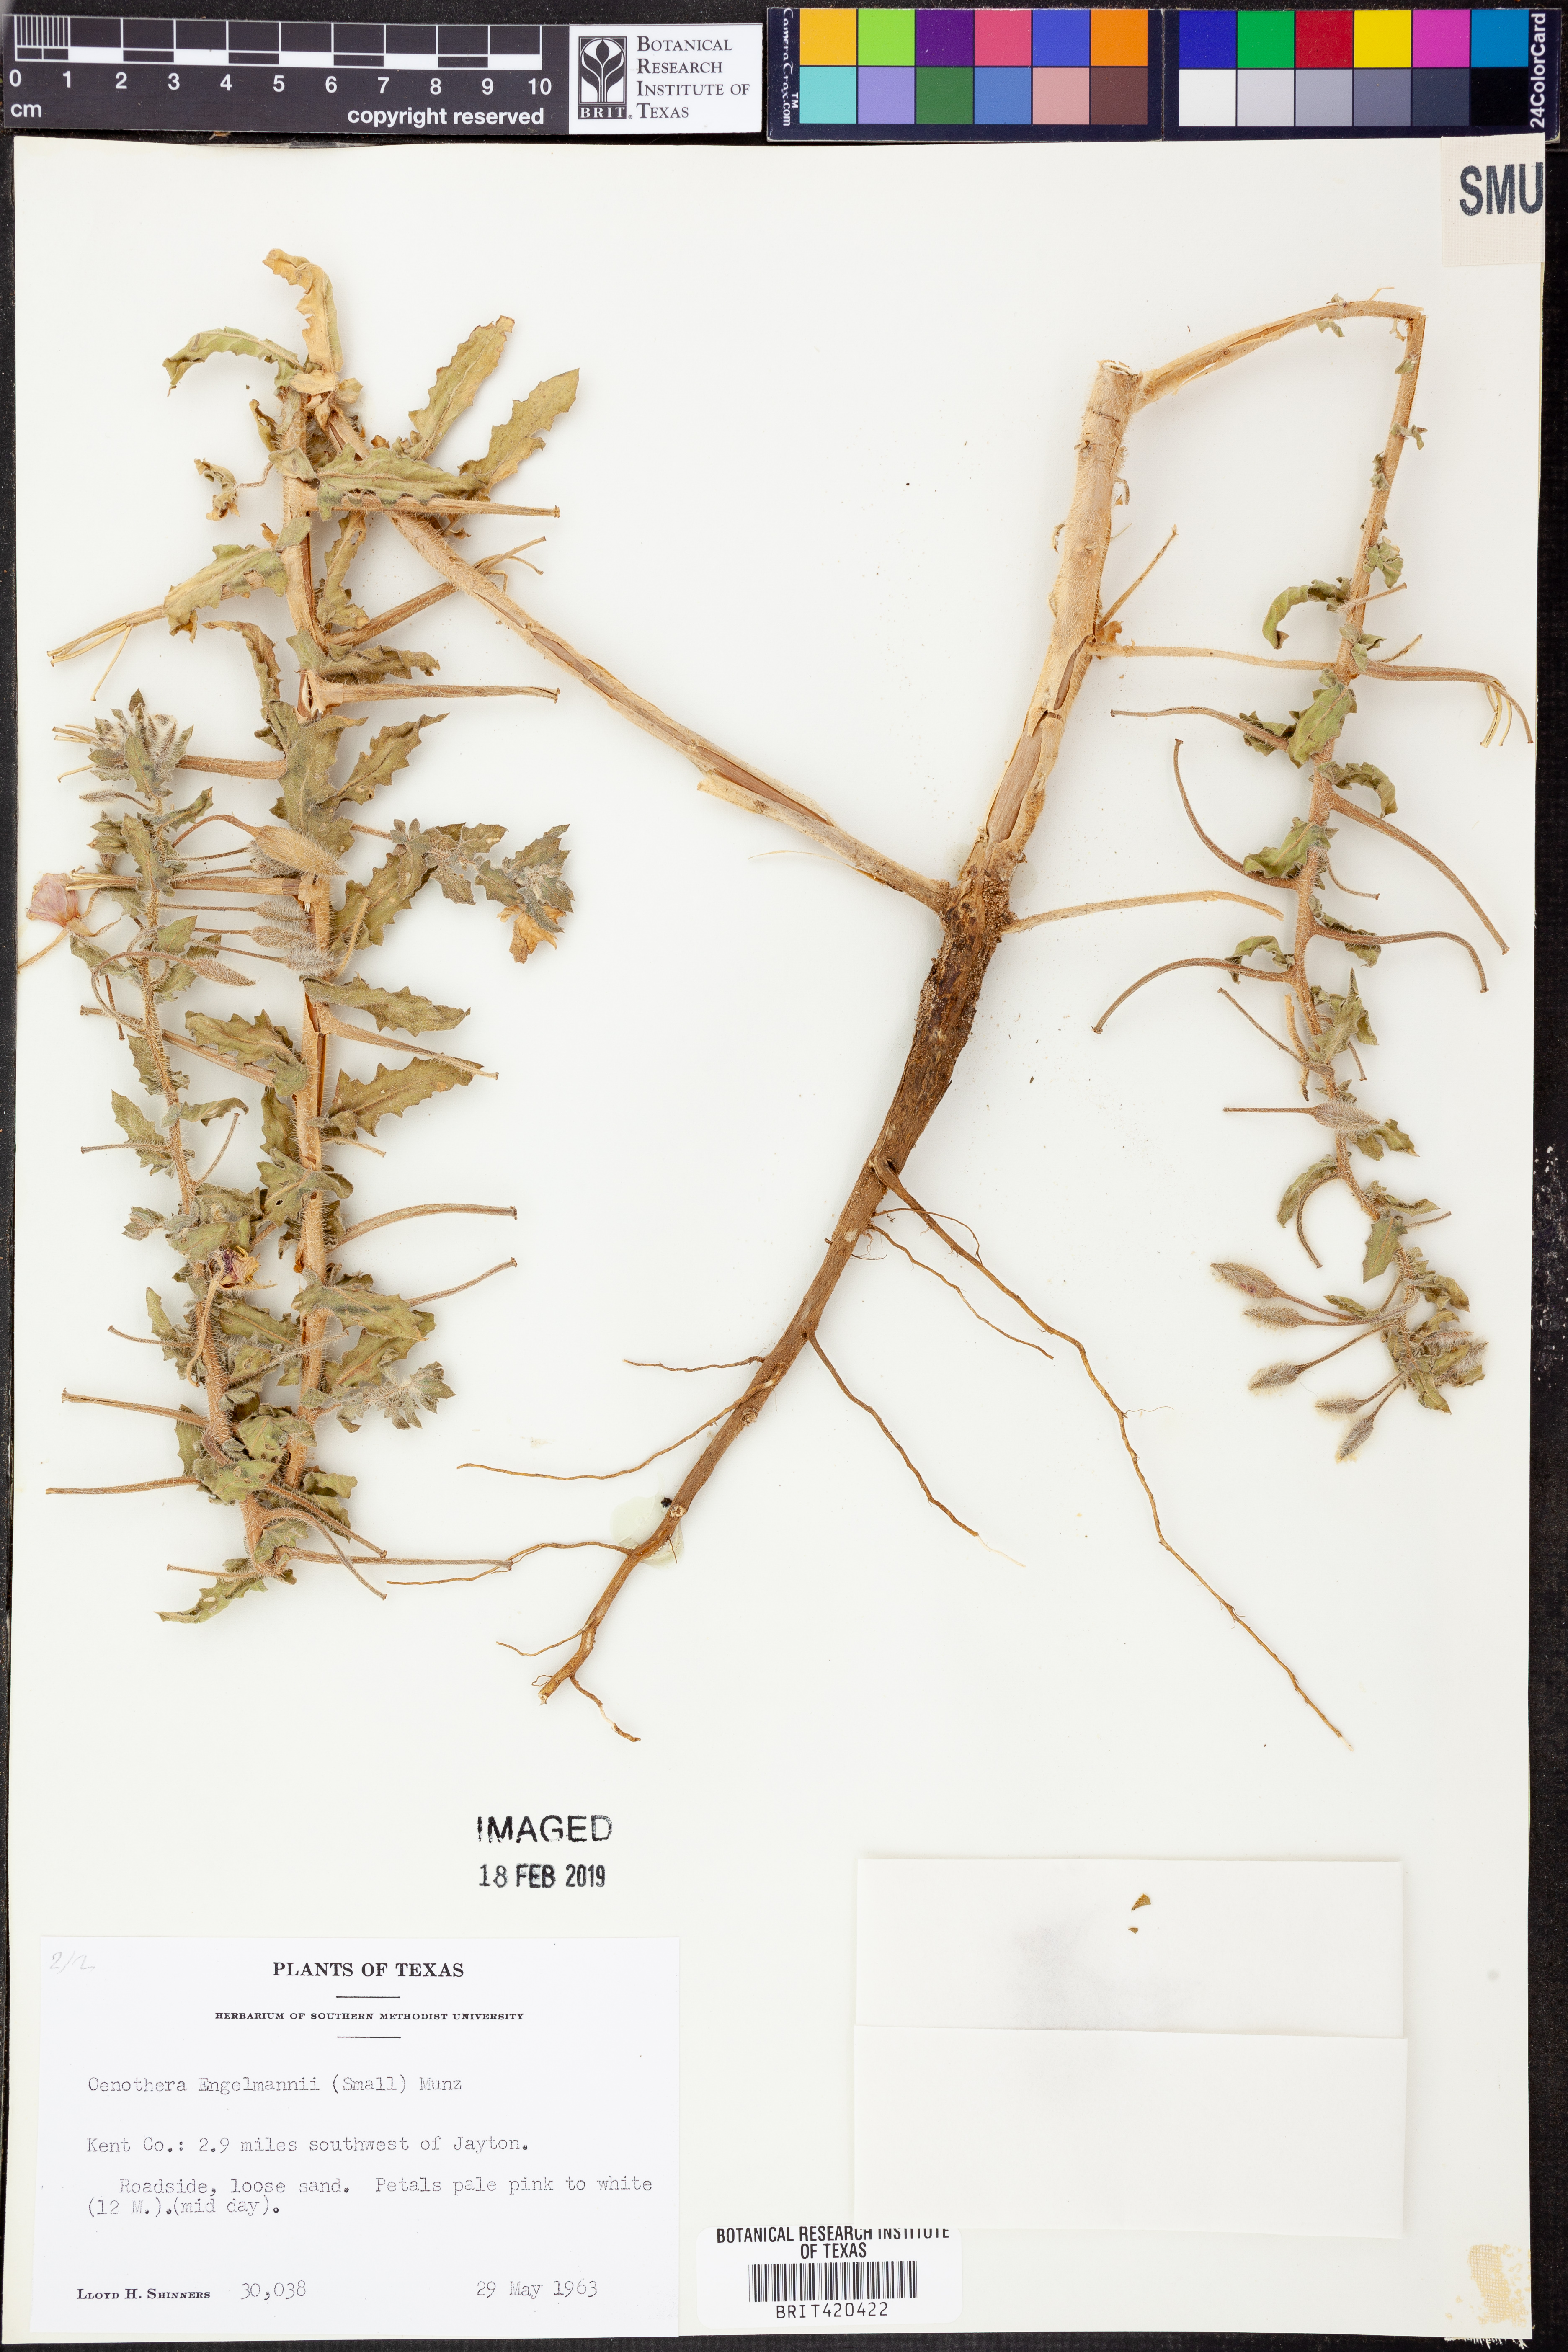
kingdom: Plantae
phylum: Tracheophyta
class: Magnoliopsida
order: Myrtales
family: Onagraceae
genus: Oenothera
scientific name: Oenothera engelmannii
